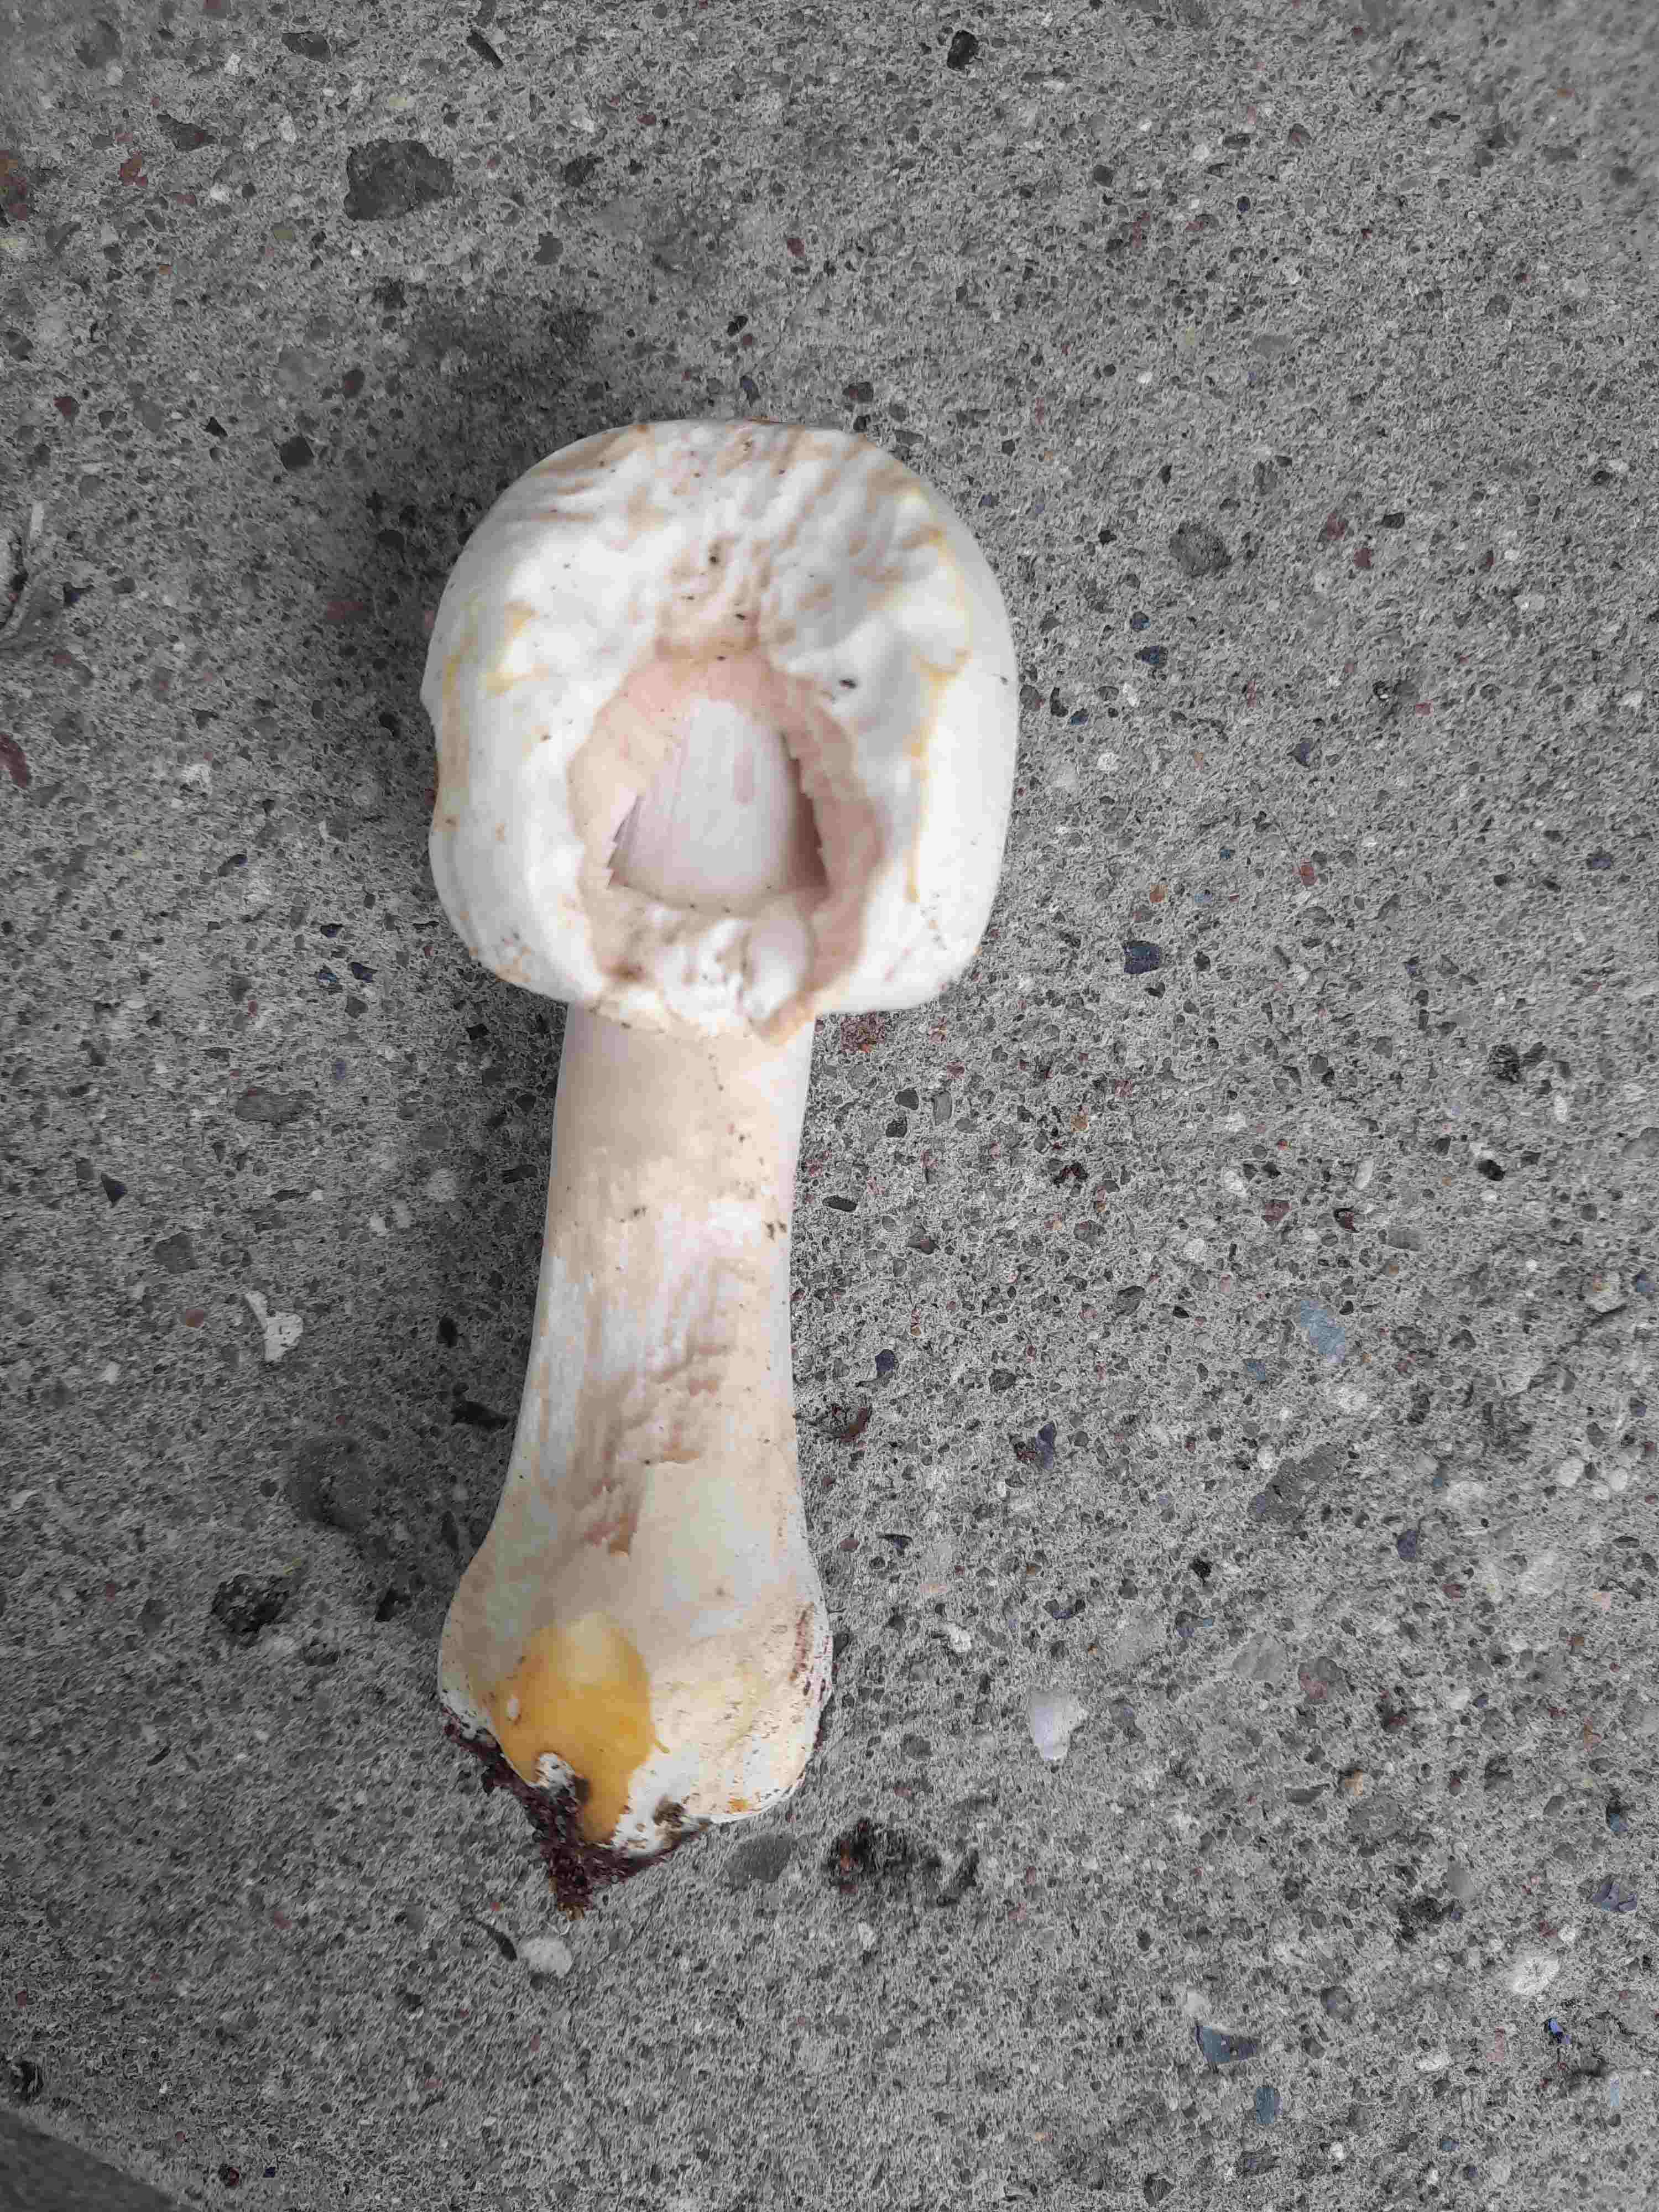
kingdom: Fungi
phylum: Basidiomycota
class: Agaricomycetes
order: Agaricales
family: Agaricaceae
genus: Agaricus
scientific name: Agaricus xanthodermus
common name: karbol-champignon
